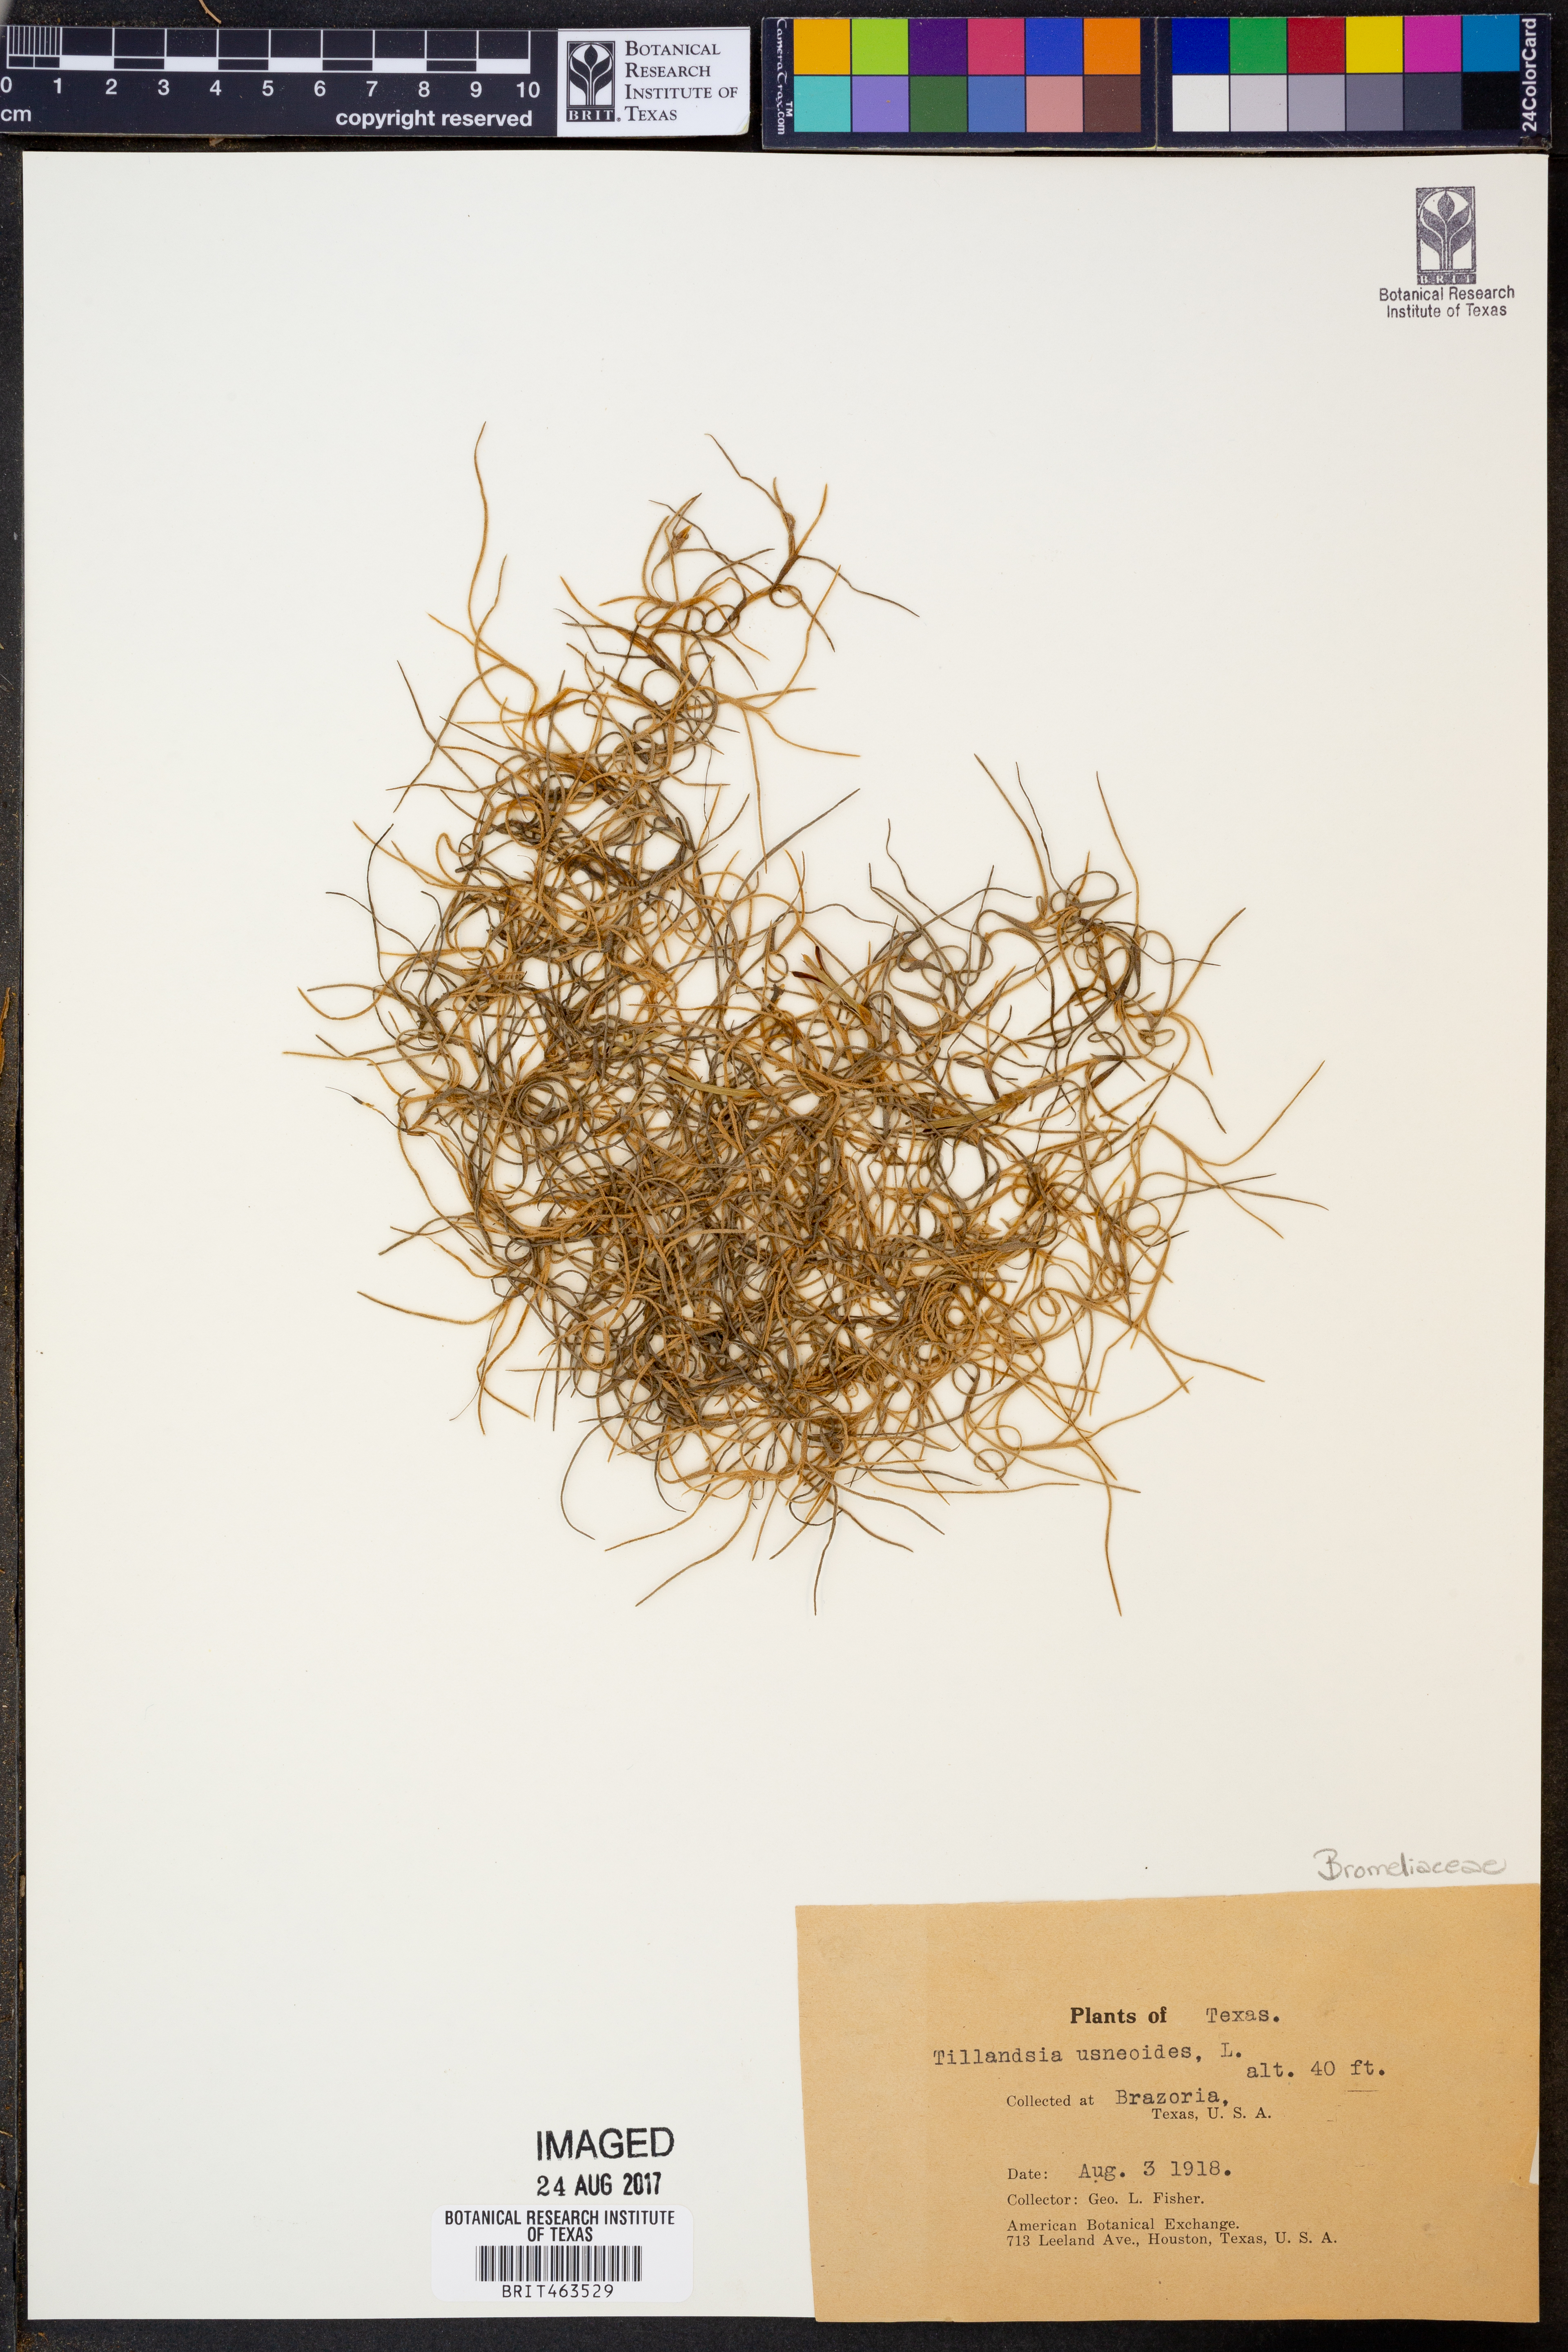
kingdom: Plantae
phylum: Tracheophyta
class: Liliopsida
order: Poales
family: Bromeliaceae
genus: Tillandsia
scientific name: Tillandsia usneoides
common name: Spanish moss
